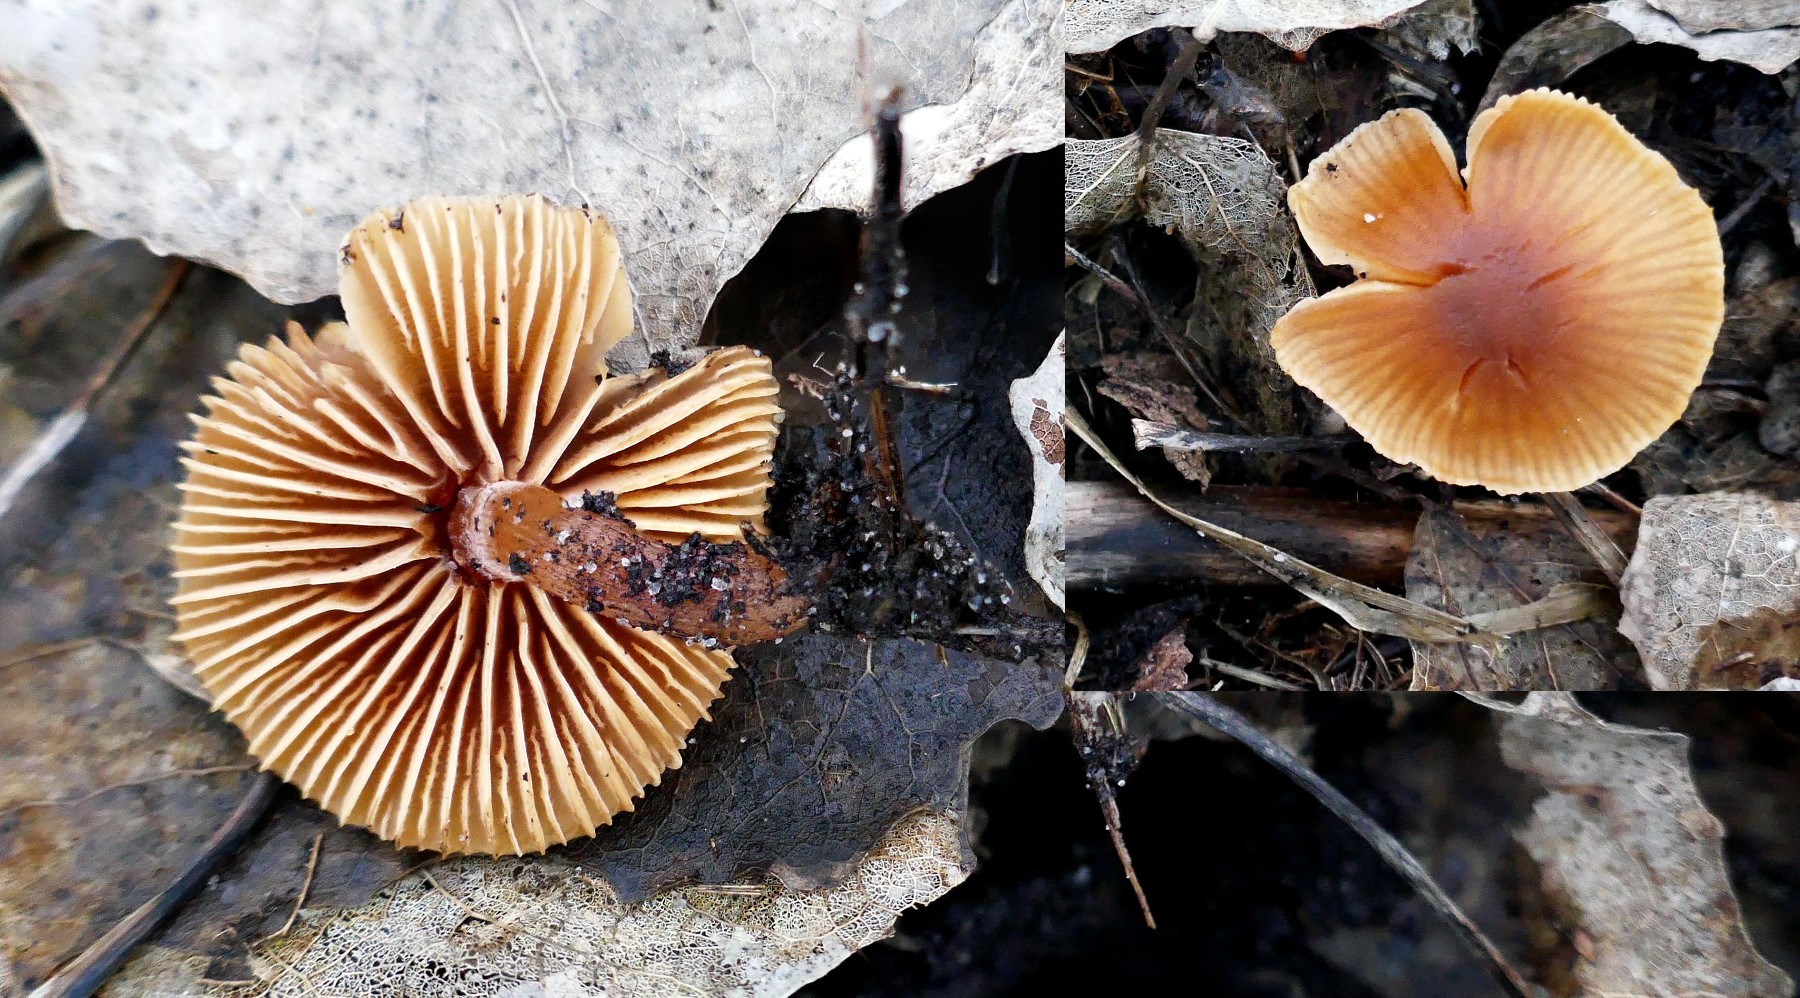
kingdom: Fungi
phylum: Basidiomycota
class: Agaricomycetes
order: Agaricales
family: Tubariaceae
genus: Tubaria
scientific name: Tubaria furfuracea
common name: kliddet fnughat
